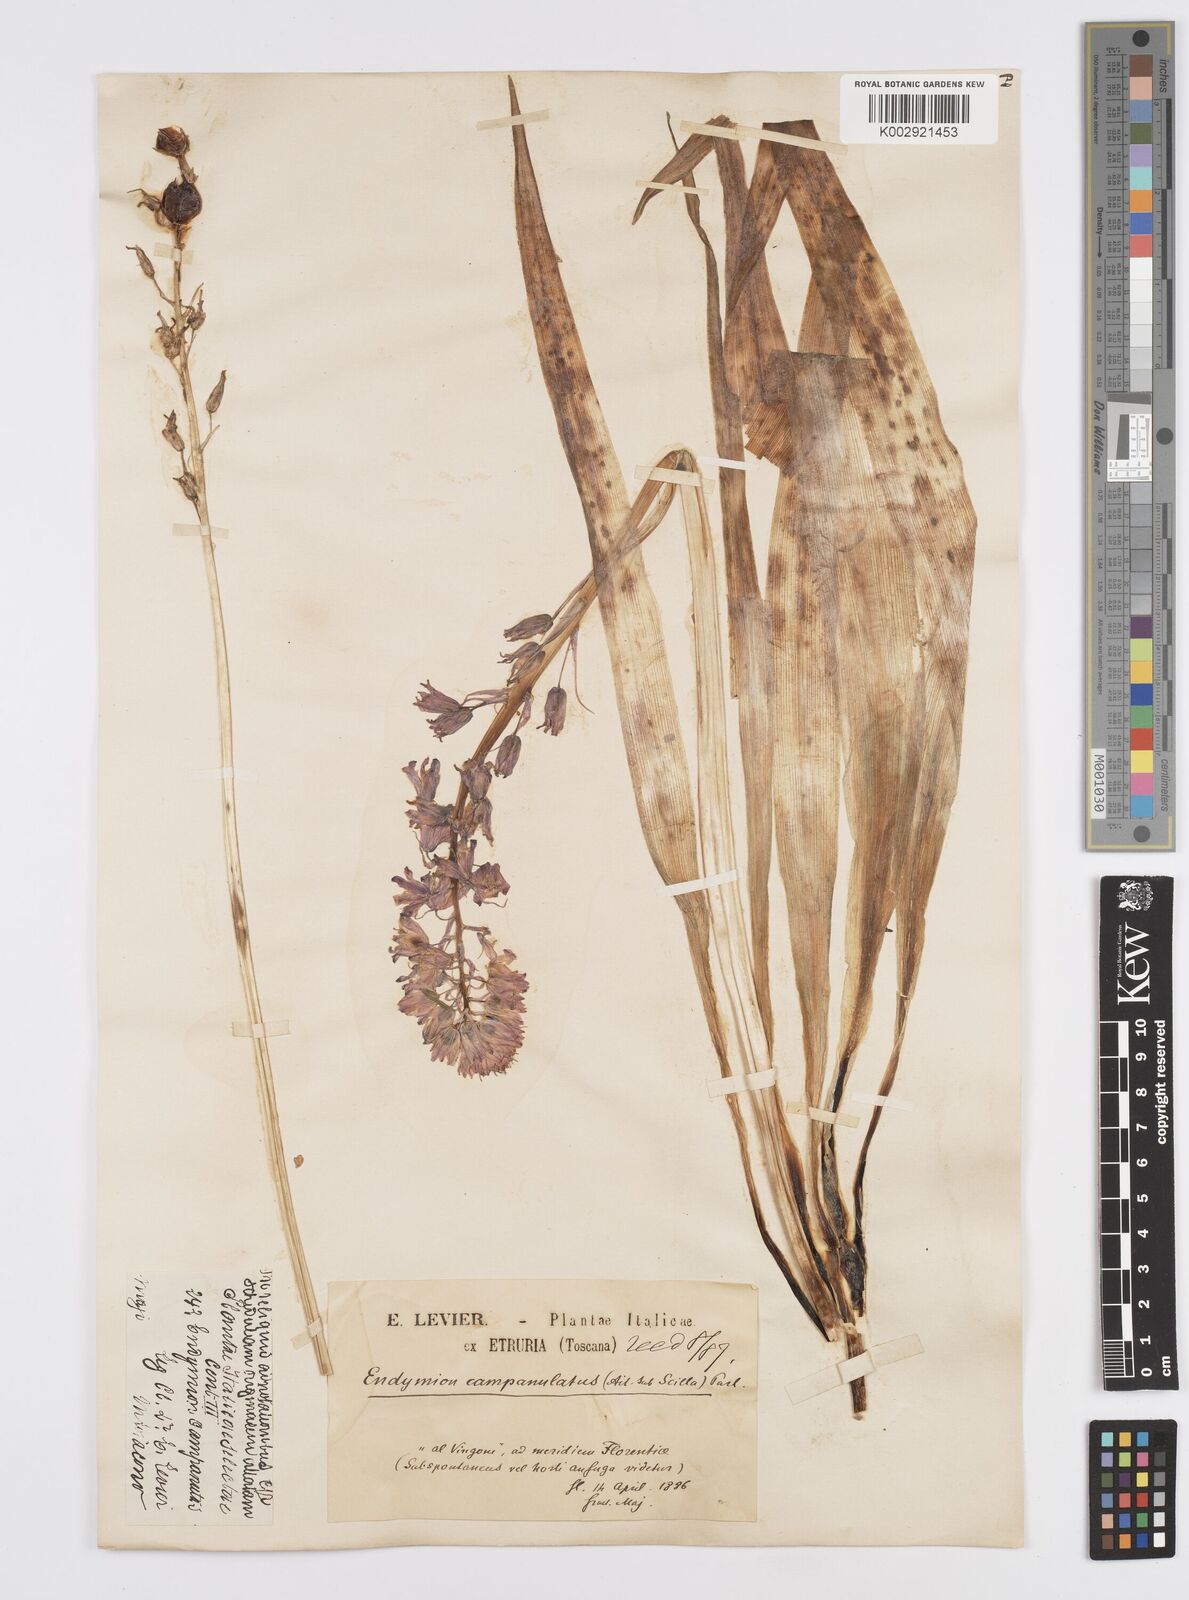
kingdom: Plantae
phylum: Tracheophyta
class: Liliopsida
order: Asparagales
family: Asparagaceae
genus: Hyacinthoides
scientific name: Hyacinthoides hispanica
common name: Spanish bluebell
